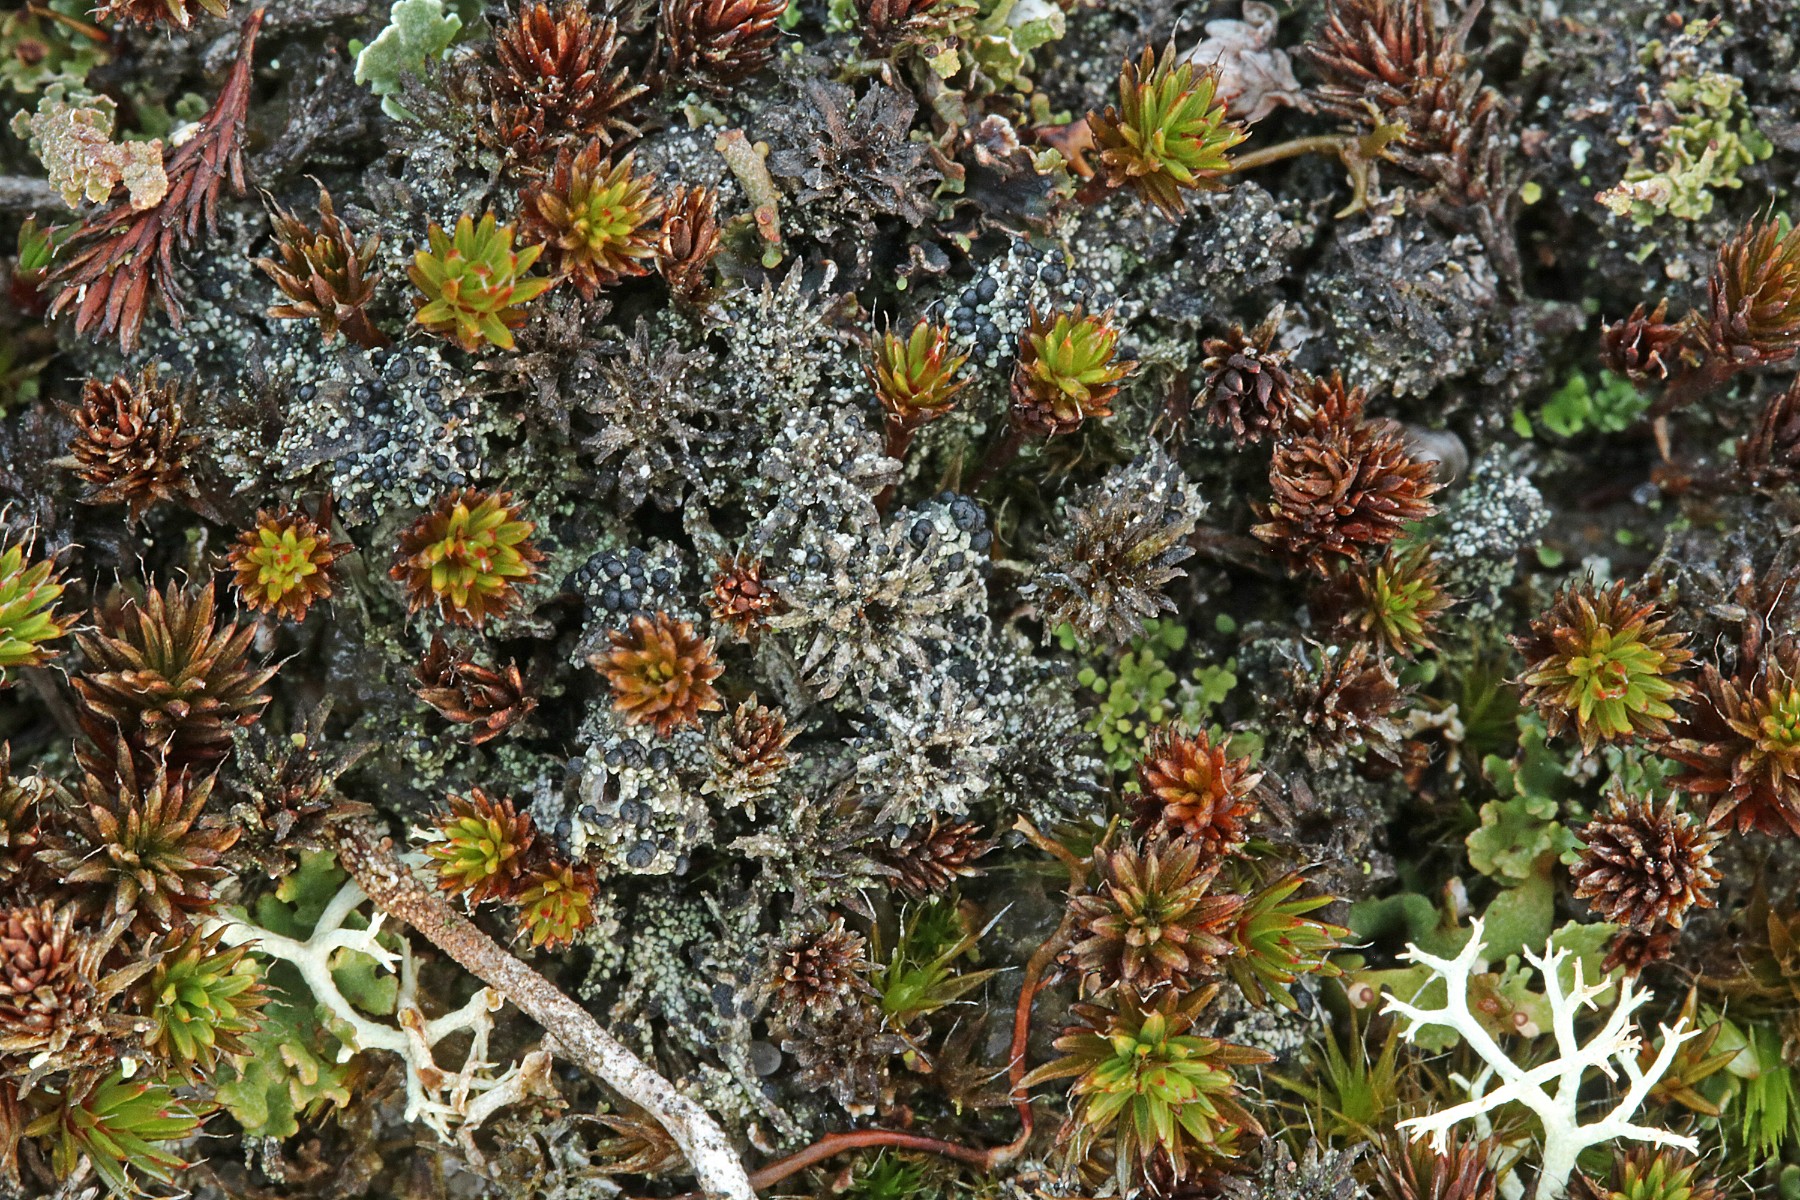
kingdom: Fungi
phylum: Ascomycota
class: Lecanoromycetes
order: Lecanorales
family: Byssolomataceae
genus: Micarea
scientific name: Micarea lignaria
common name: tørve-knaplav
